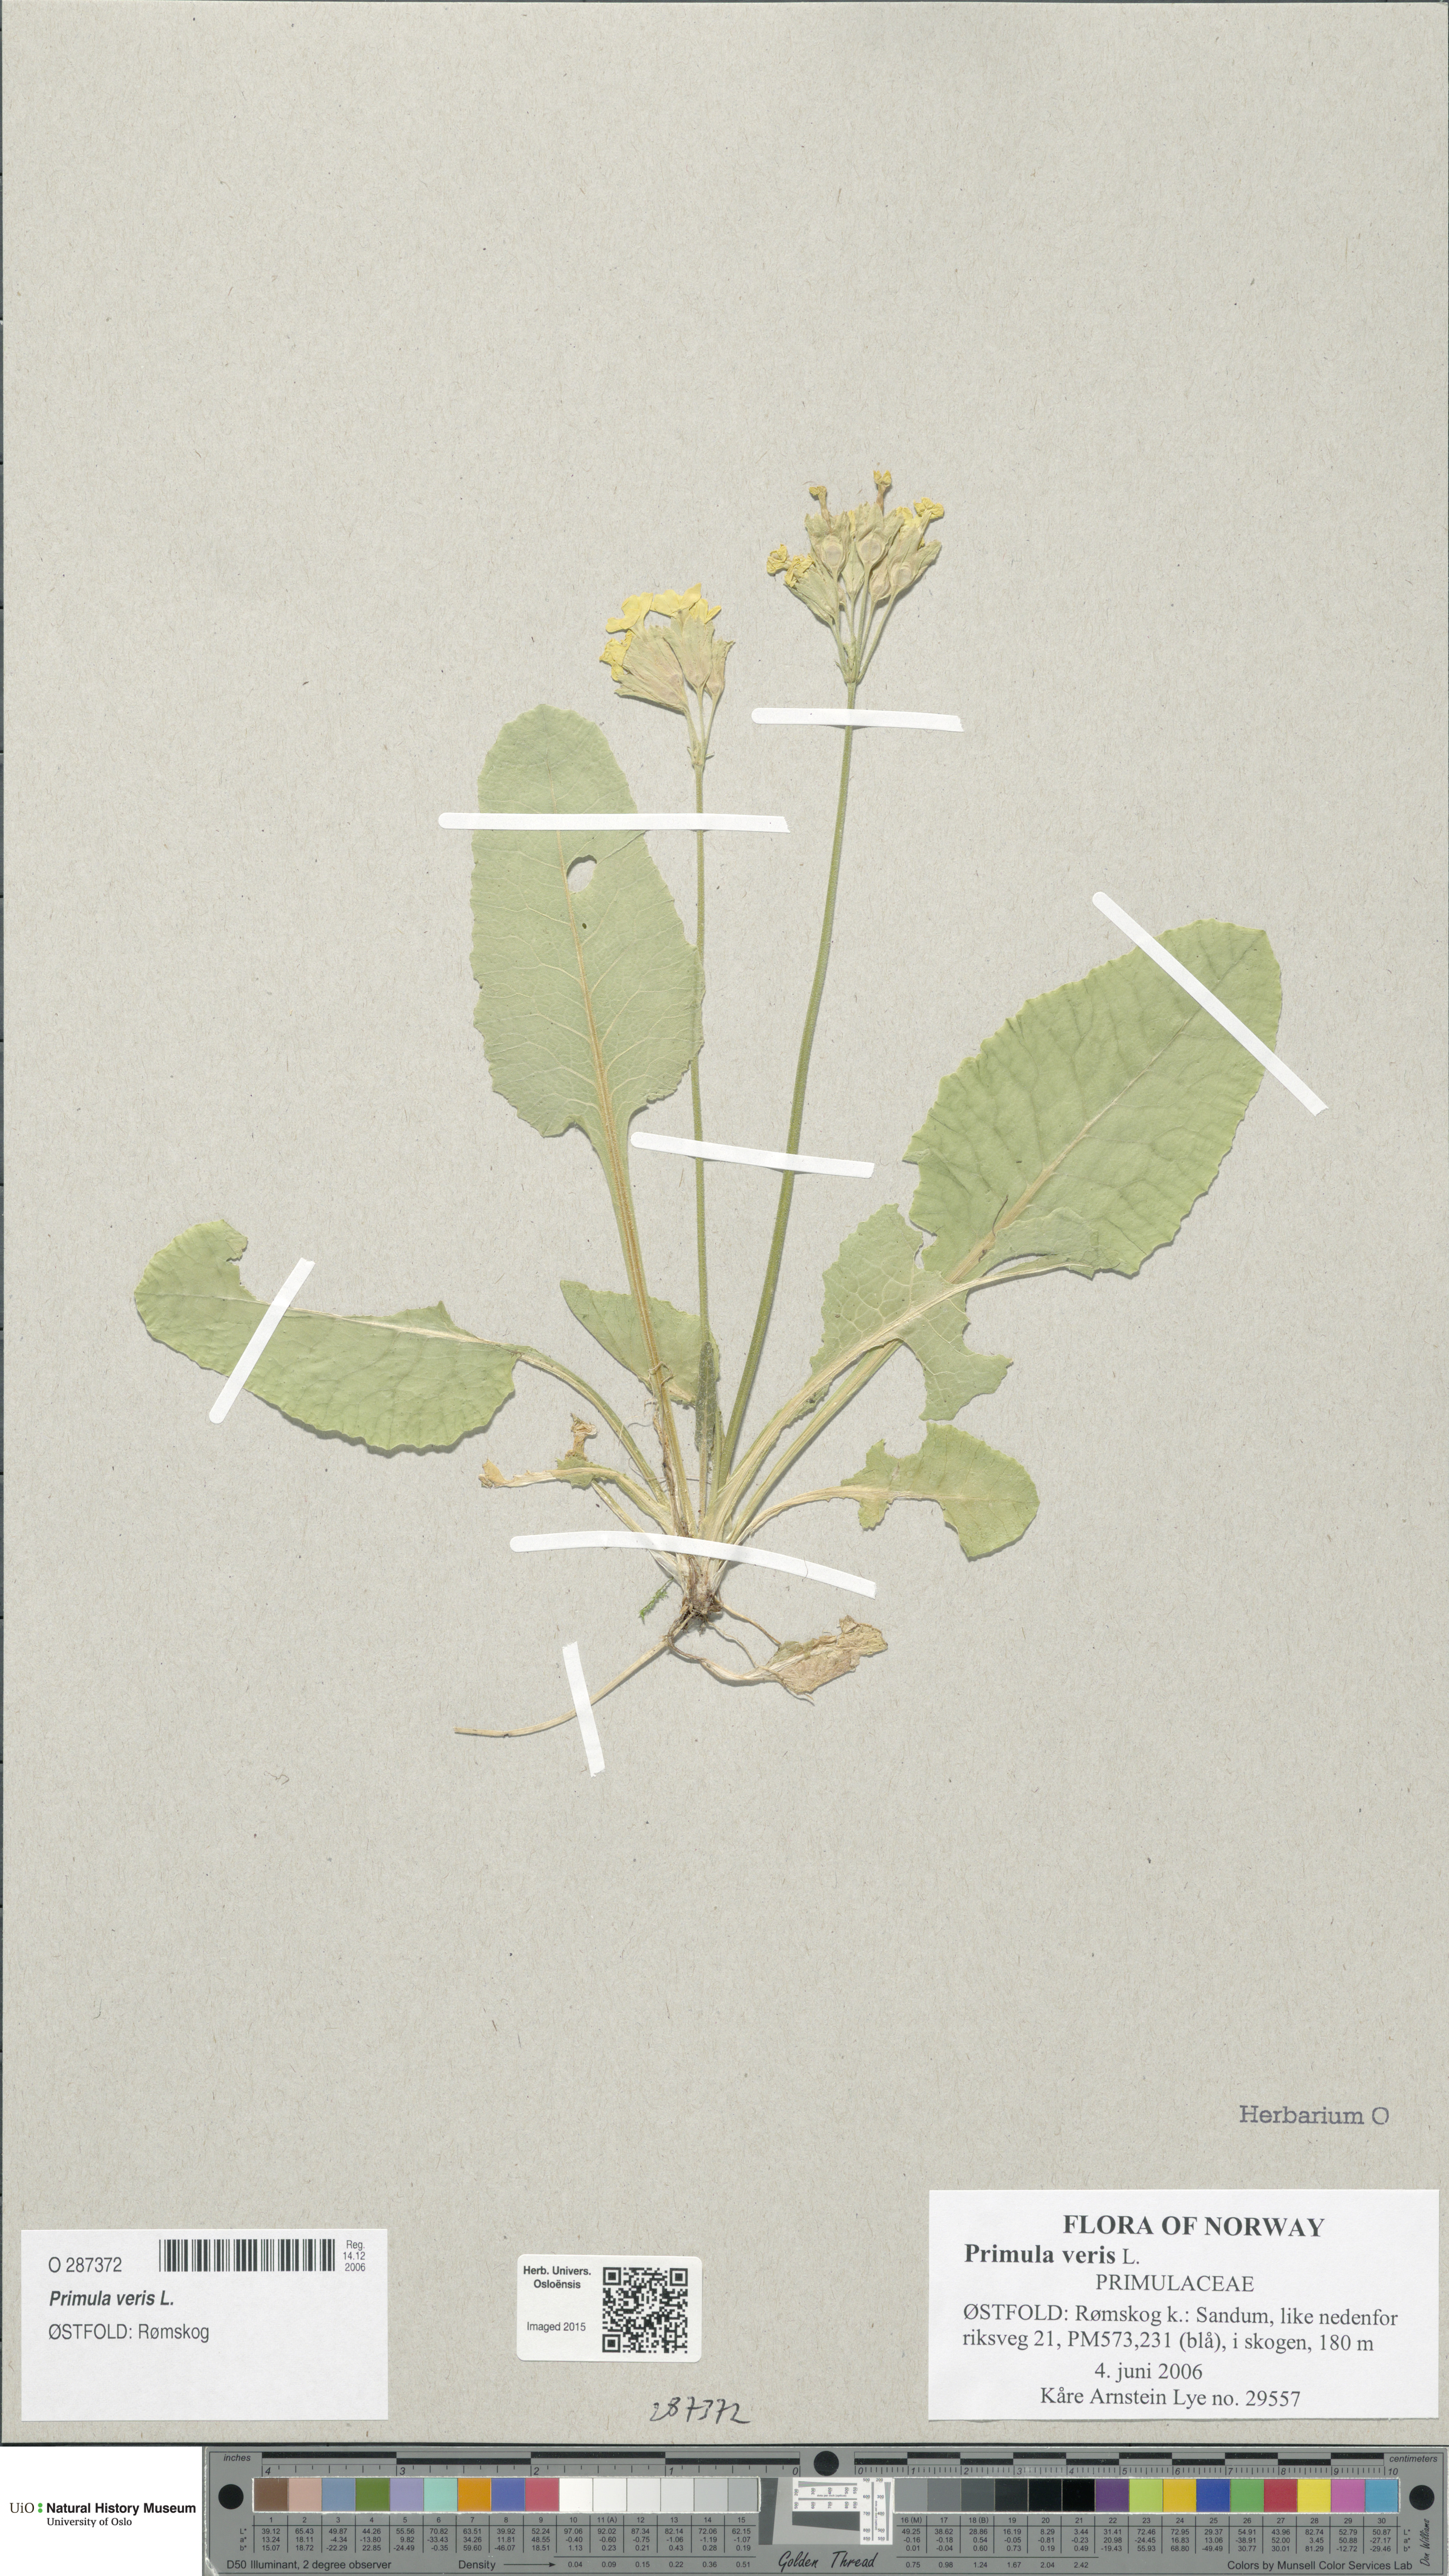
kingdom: Plantae
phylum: Tracheophyta
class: Magnoliopsida
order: Ericales
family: Primulaceae
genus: Primula
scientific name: Primula veris
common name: Cowslip
